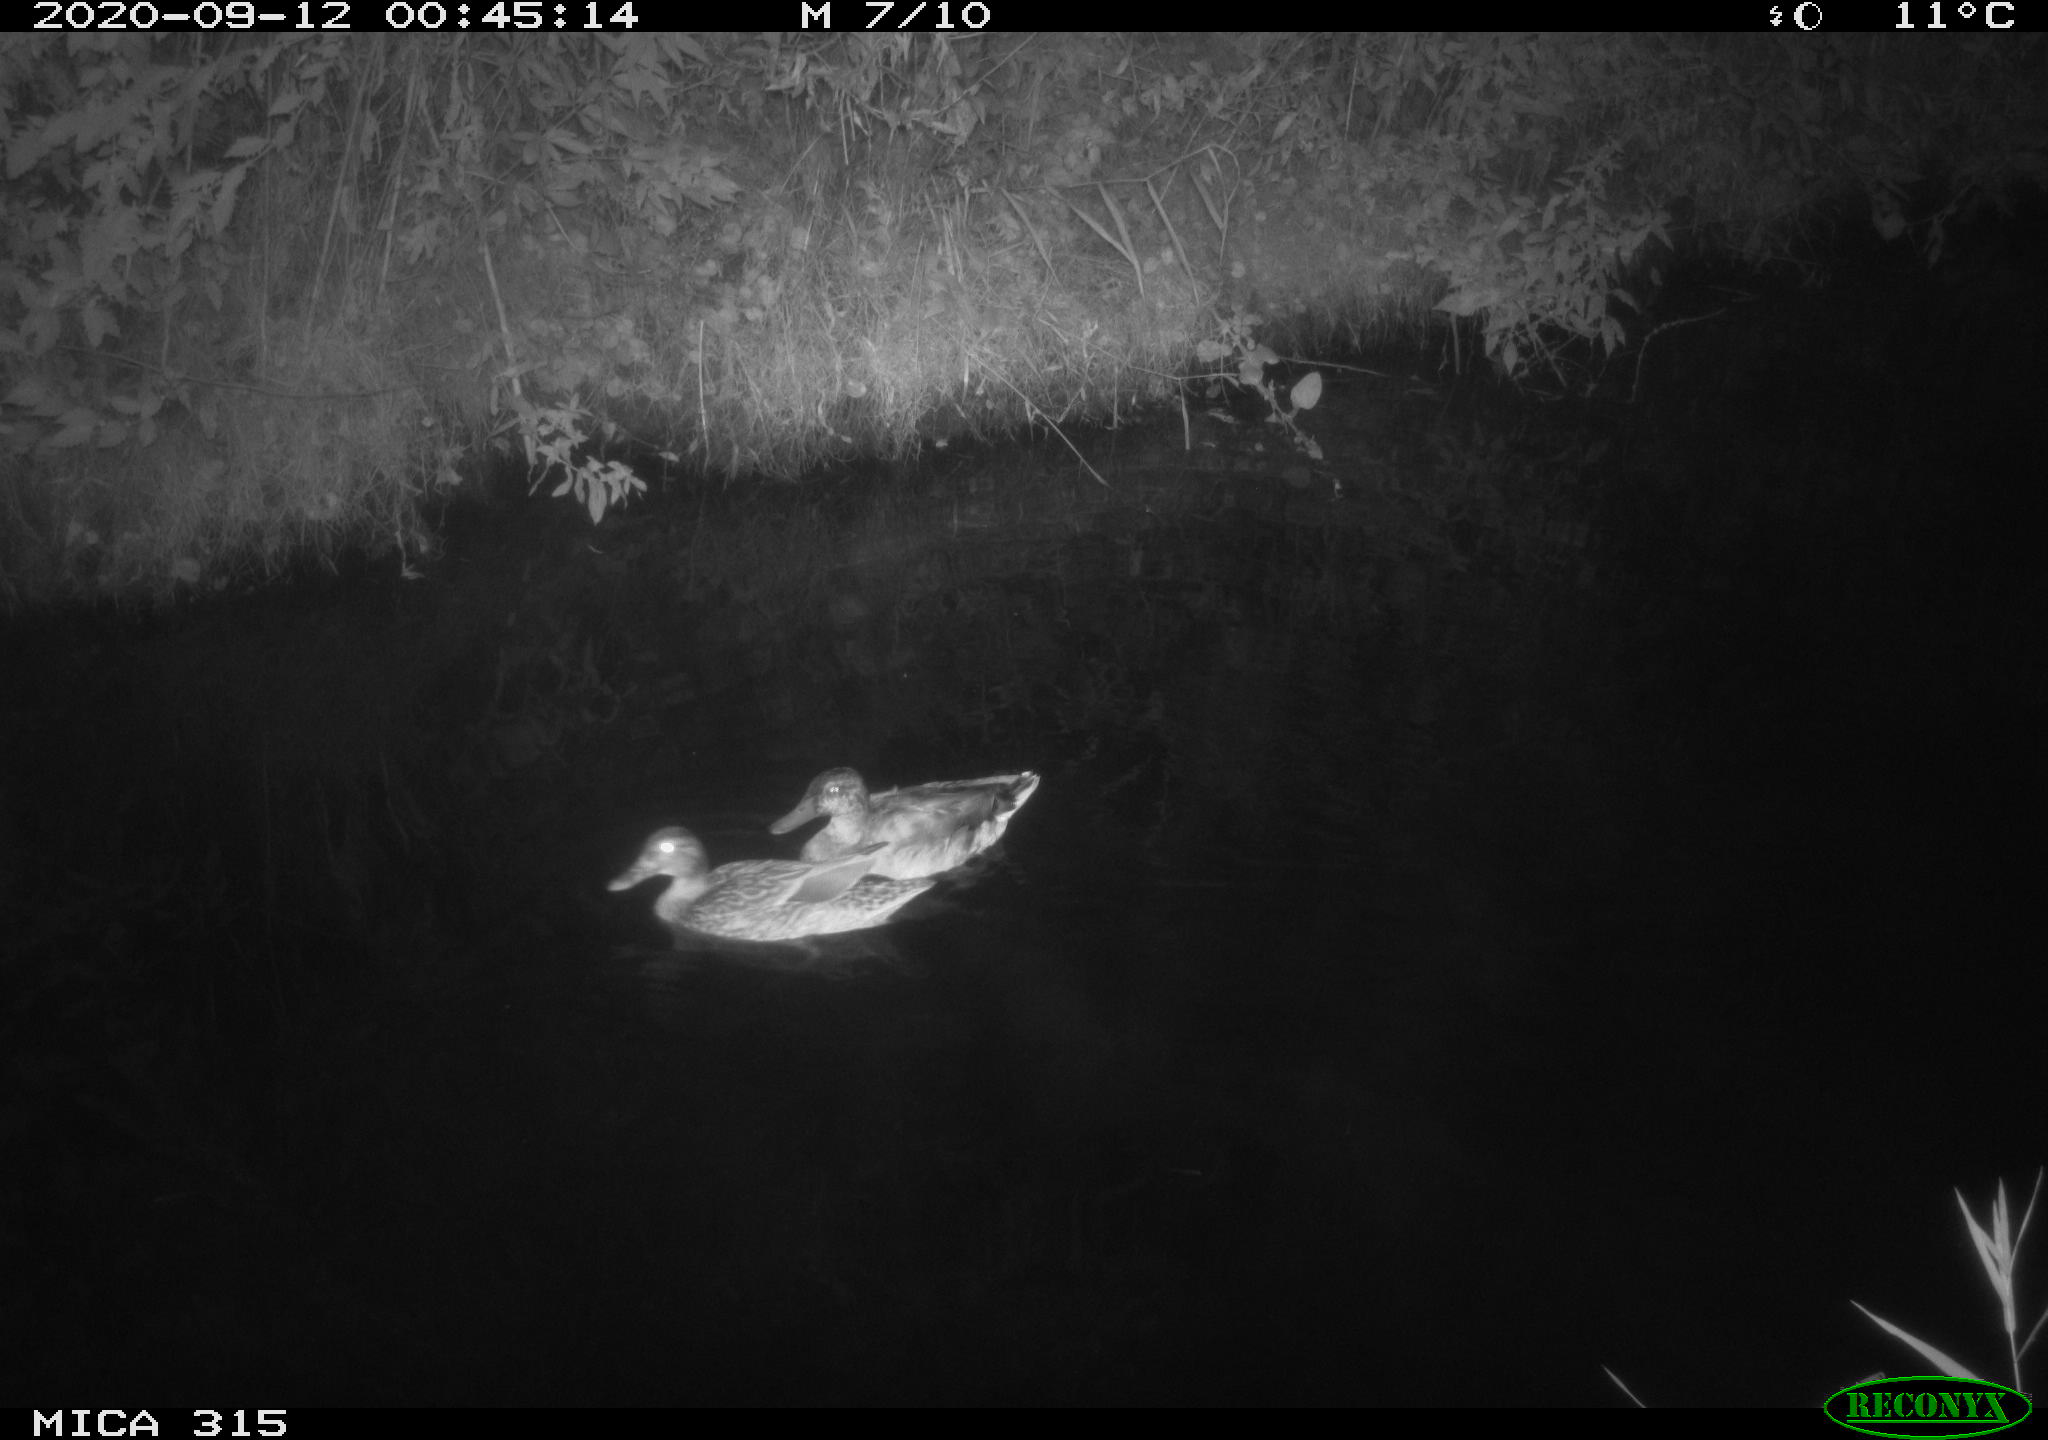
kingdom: Animalia
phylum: Chordata
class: Aves
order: Anseriformes
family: Anatidae
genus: Anas
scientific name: Anas platyrhynchos
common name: Mallard
